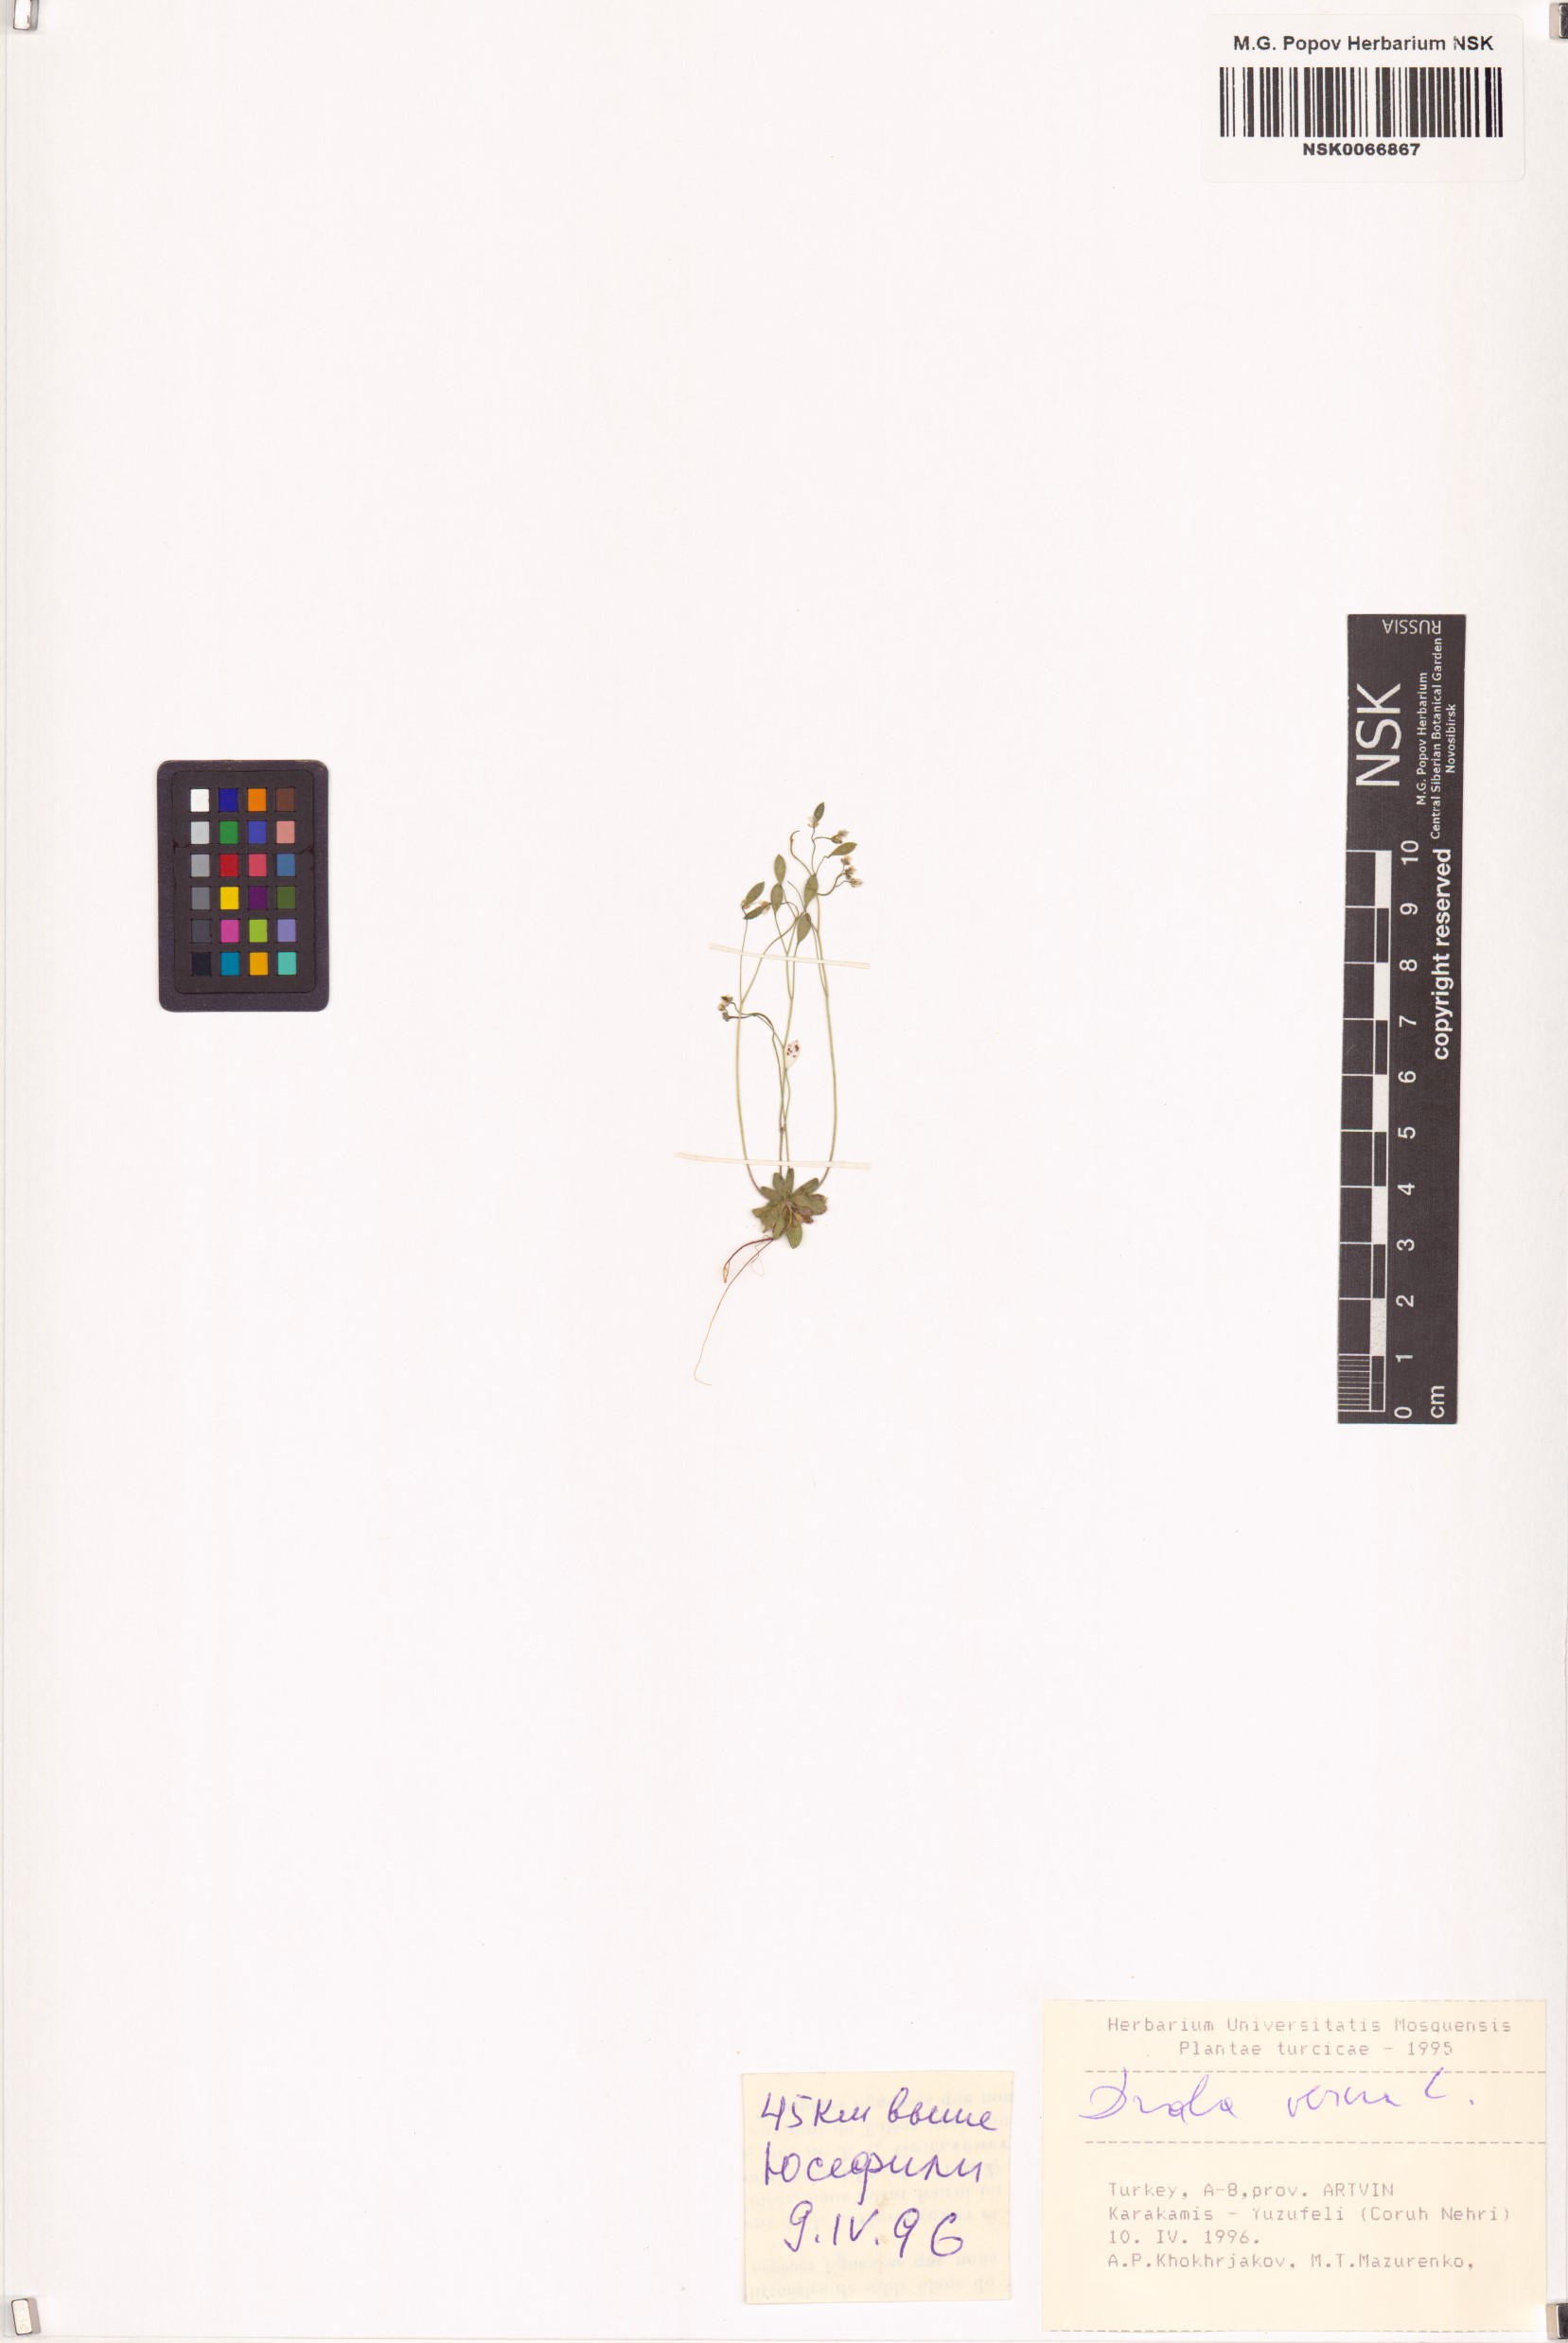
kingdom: Plantae
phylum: Tracheophyta
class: Magnoliopsida
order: Brassicales
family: Brassicaceae
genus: Draba
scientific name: Draba verna
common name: Spring draba
